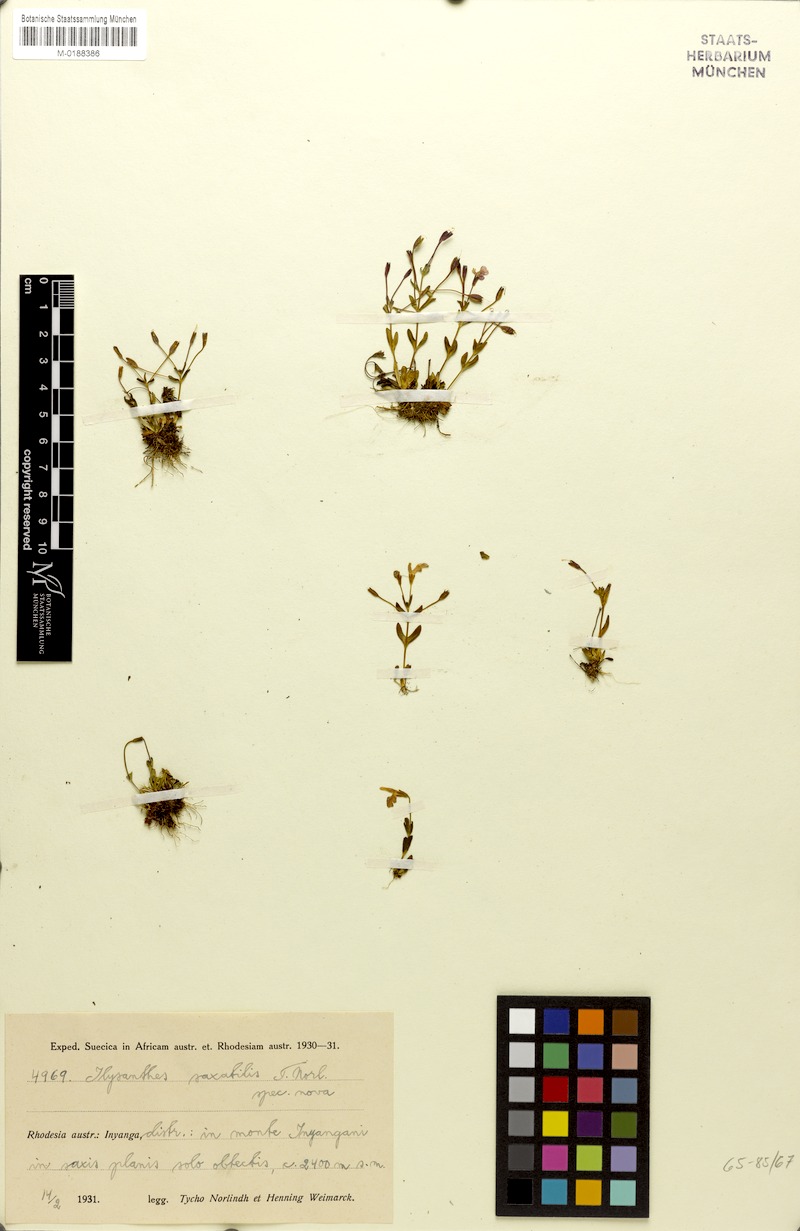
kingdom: Plantae
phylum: Tracheophyta
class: Magnoliopsida
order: Lamiales
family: Linderniaceae
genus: Linderniella
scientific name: Linderniella pulchella
